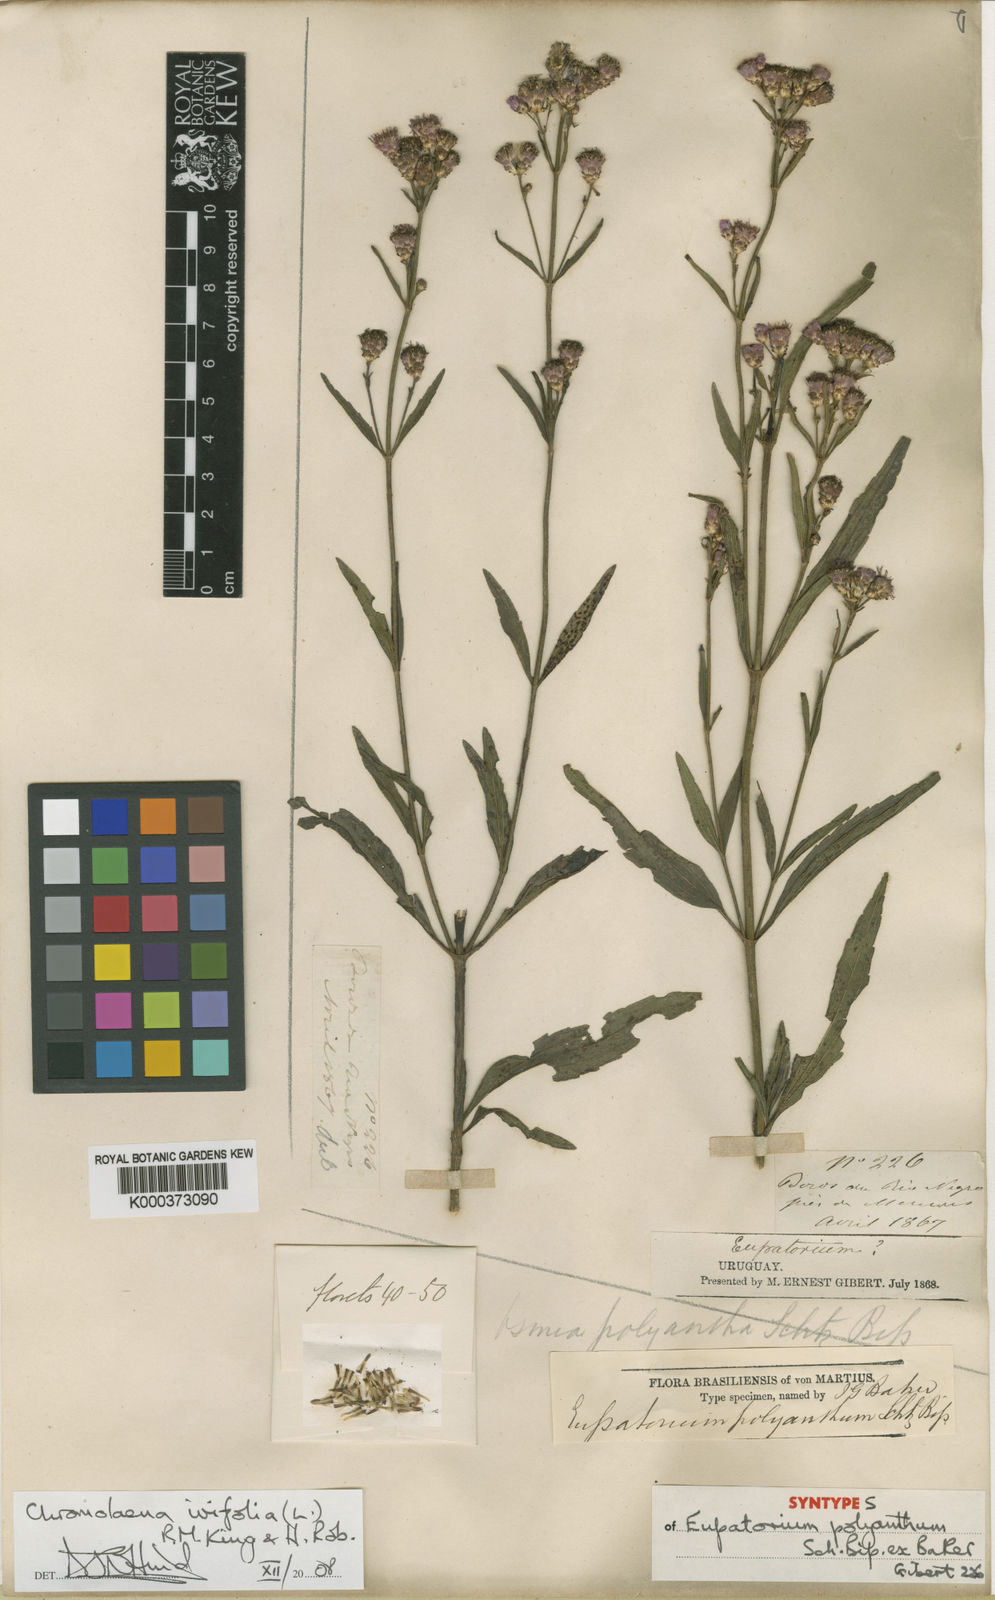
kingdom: Plantae
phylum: Tracheophyta
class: Magnoliopsida
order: Asterales
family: Asteraceae
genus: Chromolaena
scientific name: Chromolaena ivifolia
